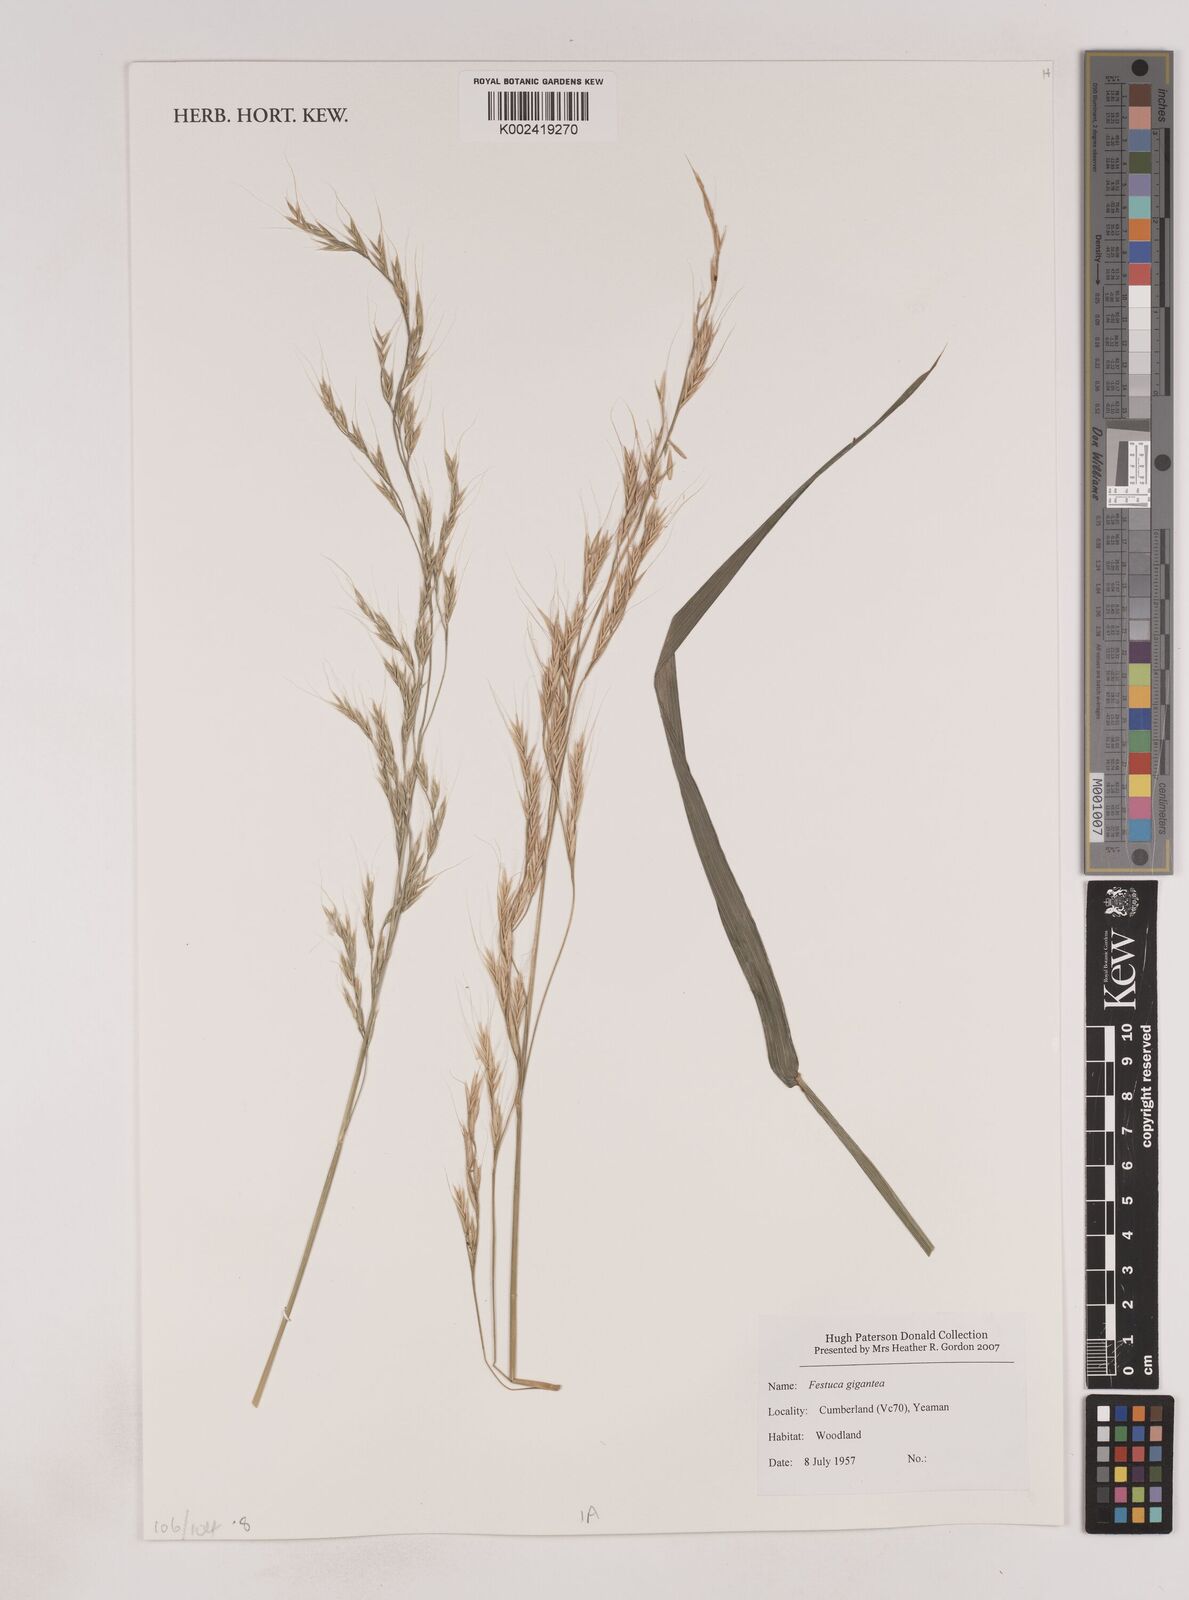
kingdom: Plantae
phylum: Tracheophyta
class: Liliopsida
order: Poales
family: Poaceae
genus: Lolium
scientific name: Lolium giganteum
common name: Giant fescue
